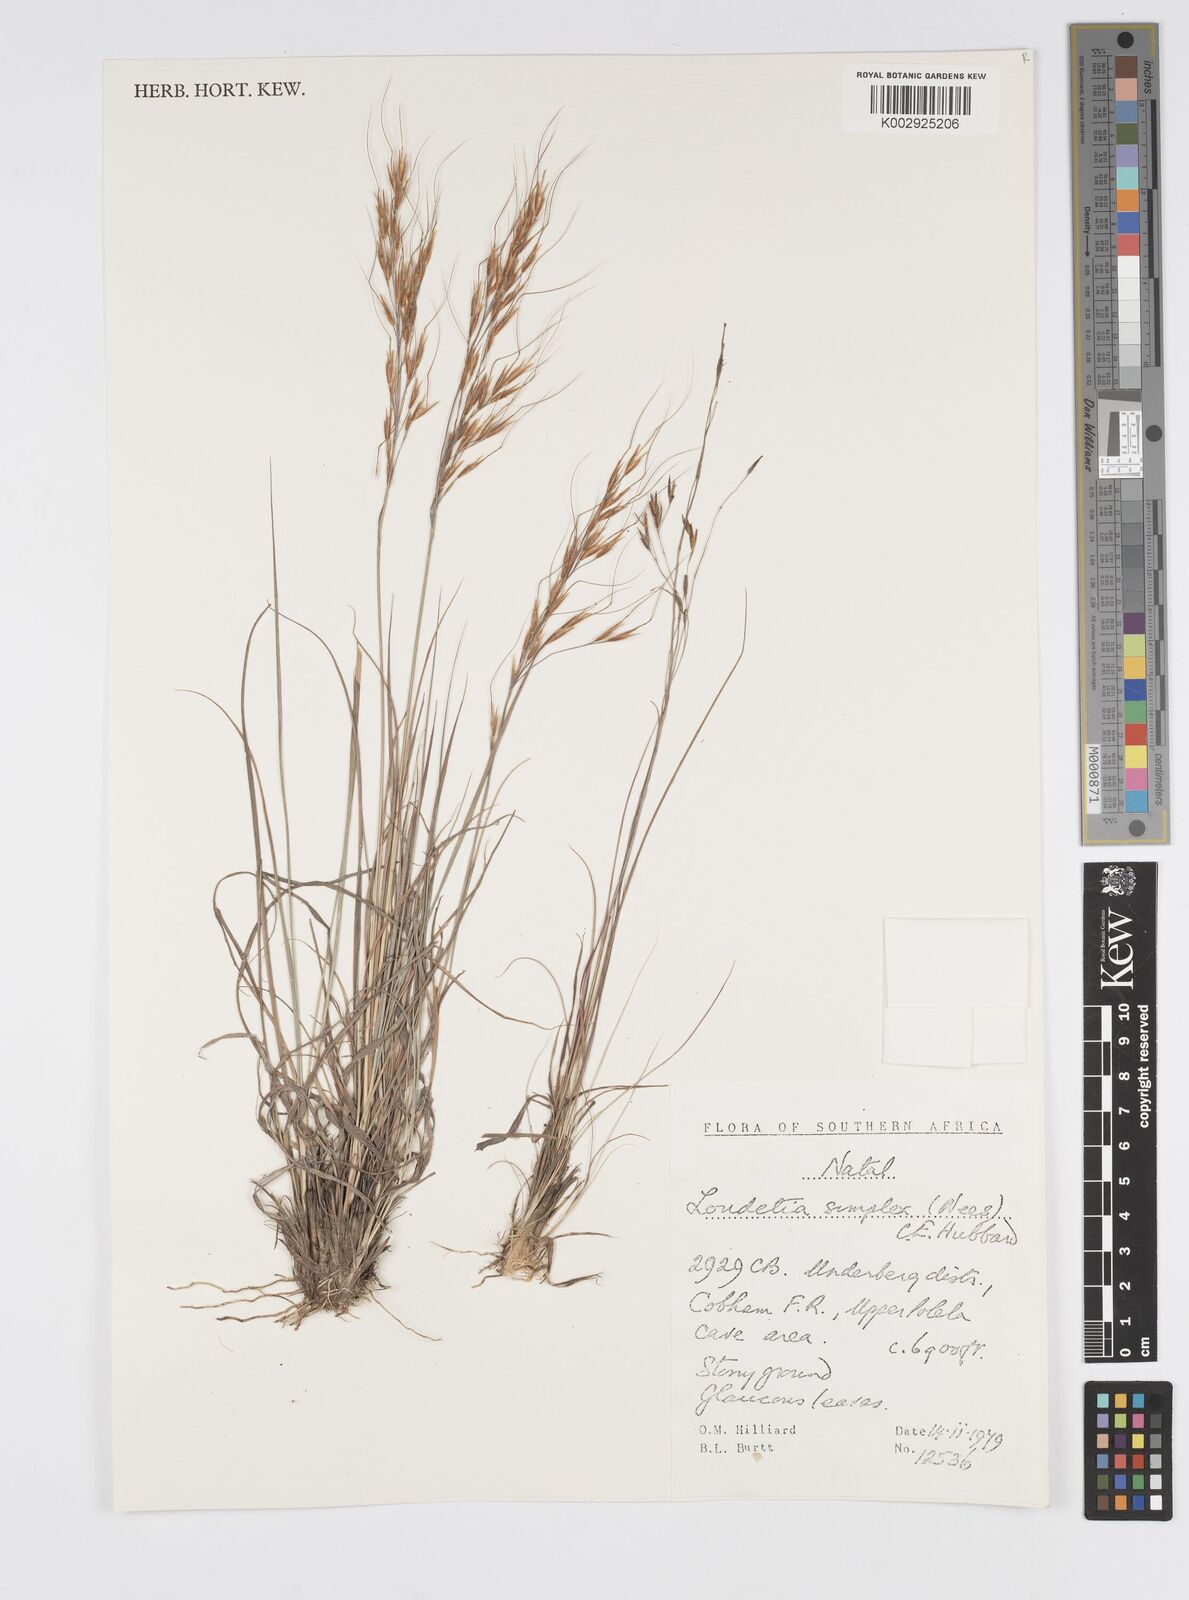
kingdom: Plantae
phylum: Tracheophyta
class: Liliopsida
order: Poales
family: Poaceae
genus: Loudetia
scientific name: Loudetia simplex
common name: Common russet grass
